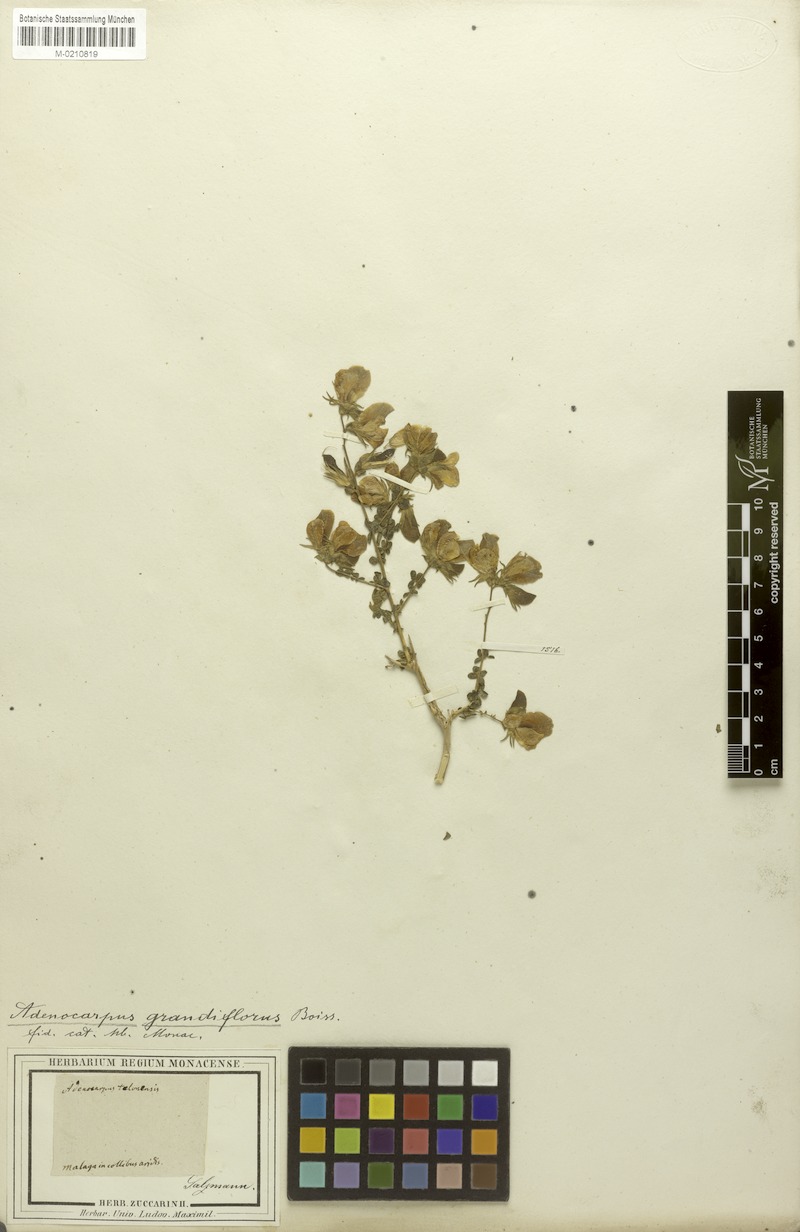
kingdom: Plantae
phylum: Tracheophyta
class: Magnoliopsida
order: Fabales
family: Fabaceae
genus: Adenocarpus
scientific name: Adenocarpus telonensis
